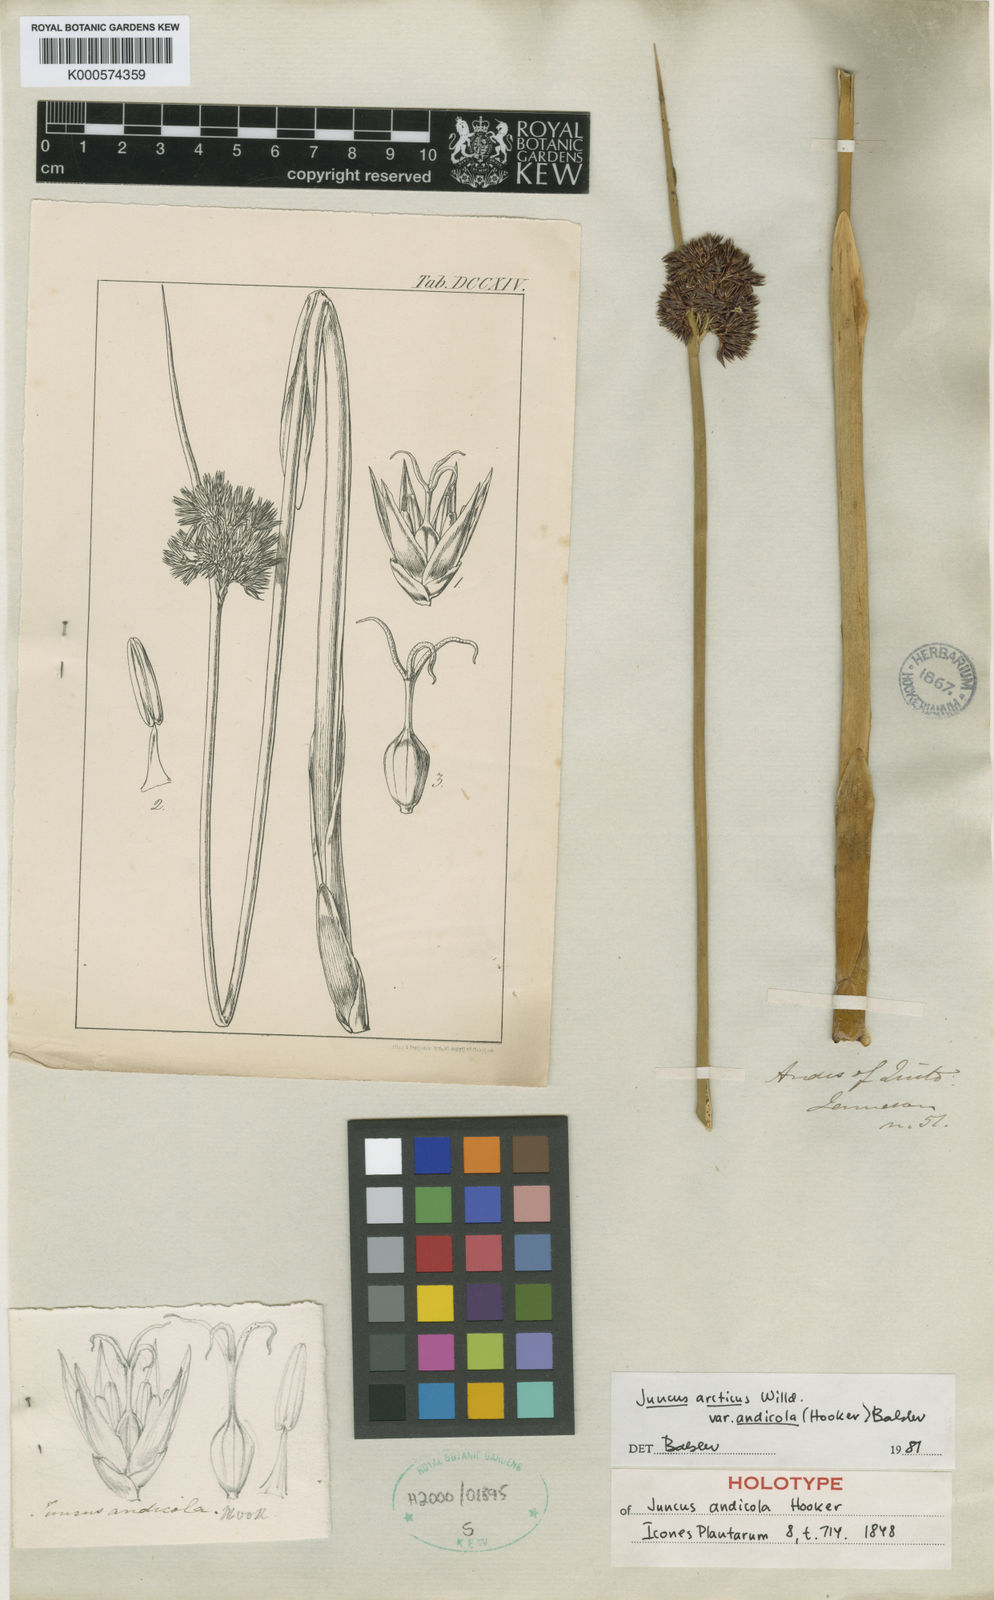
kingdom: Plantae
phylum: Tracheophyta
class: Liliopsida
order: Poales
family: Juncaceae
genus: Juncus
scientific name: Juncus balticus
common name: Baltic rush
